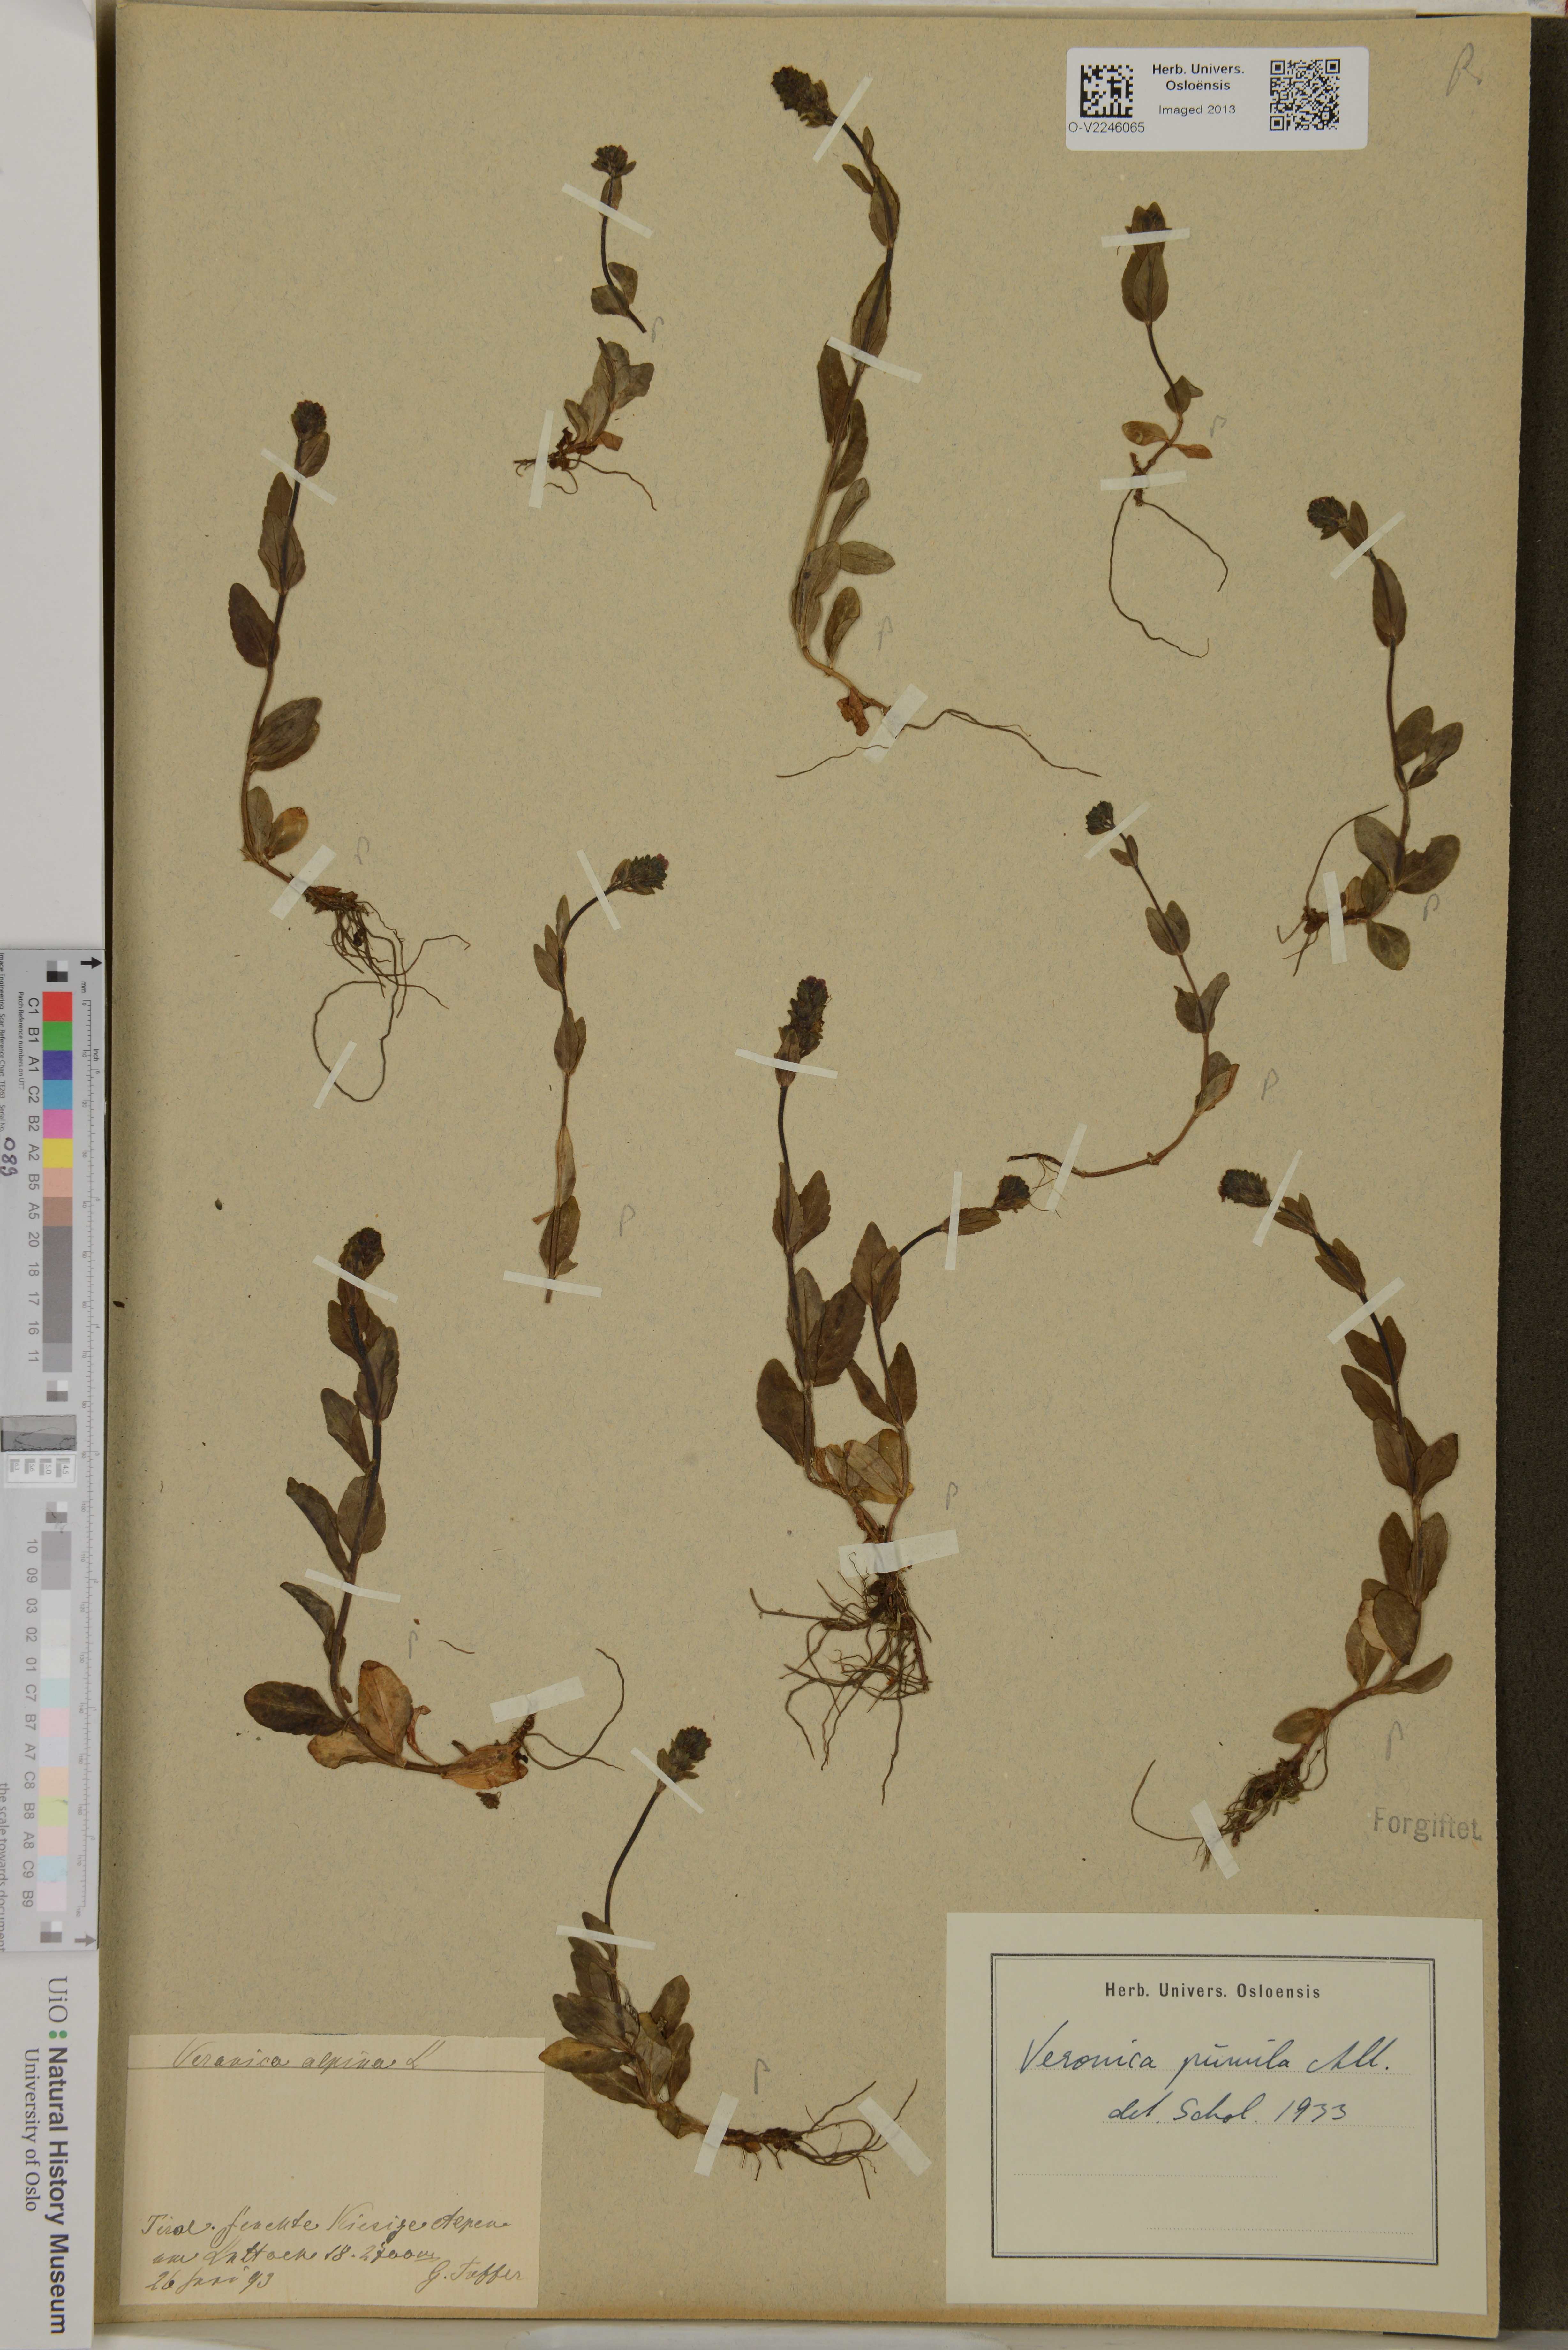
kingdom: Plantae
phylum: Tracheophyta
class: Magnoliopsida
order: Lamiales
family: Plantaginaceae
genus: Veronica
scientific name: Veronica alpina
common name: Alpine speedwell
